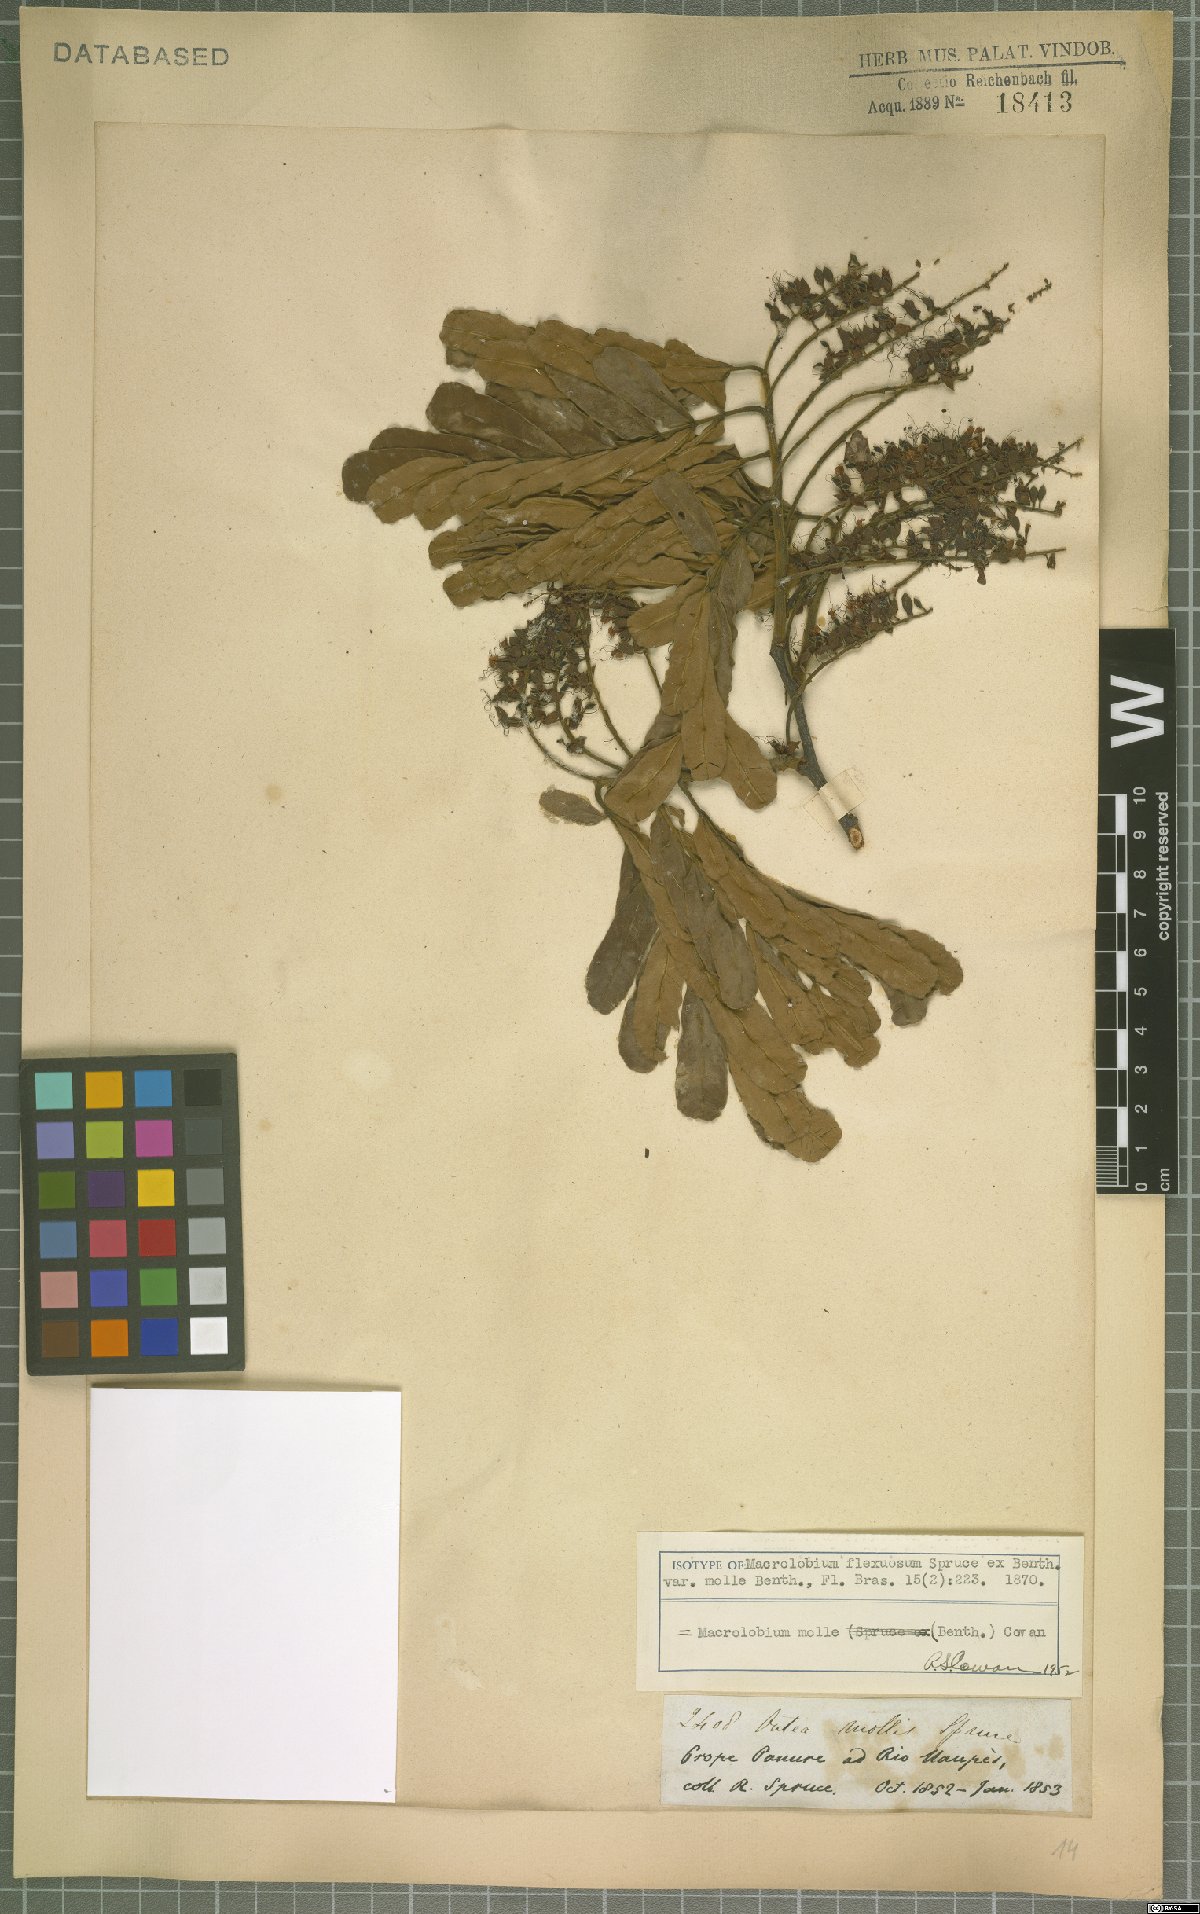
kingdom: Plantae
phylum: Tracheophyta
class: Magnoliopsida
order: Fabales
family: Fabaceae
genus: Macrolobium
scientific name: Macrolobium molle
